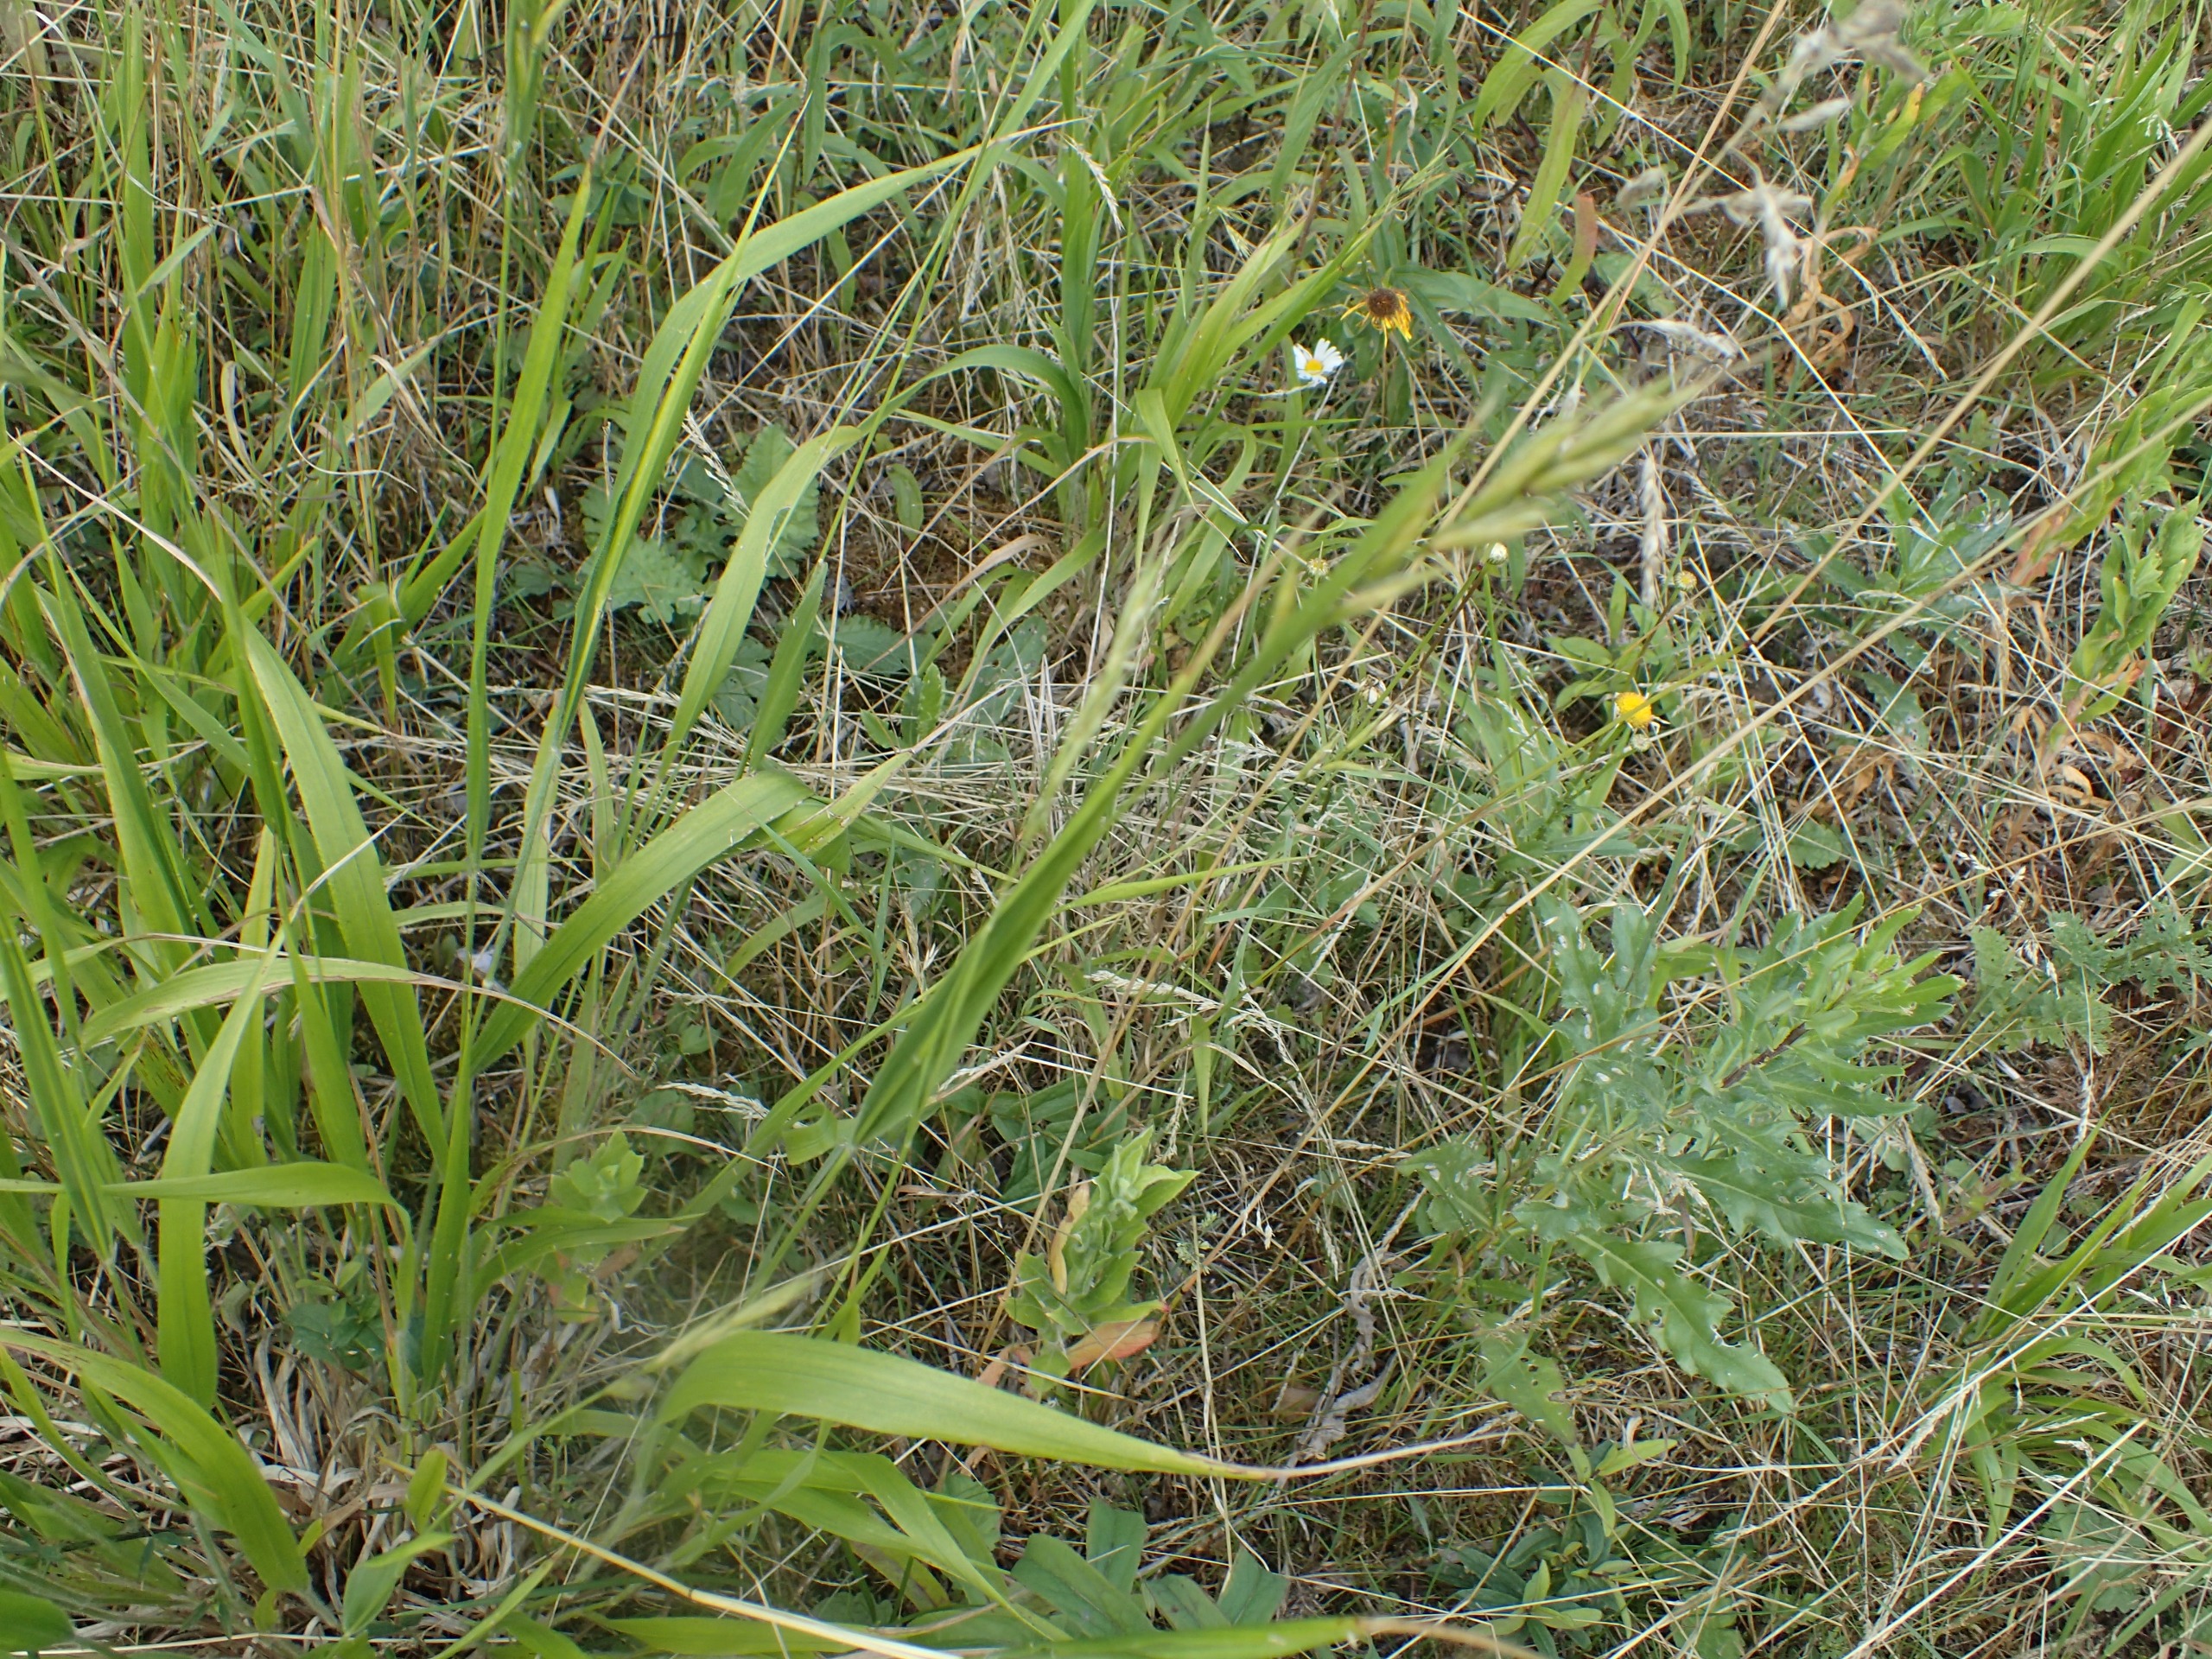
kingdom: Plantae
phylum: Tracheophyta
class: Liliopsida
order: Poales
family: Poaceae
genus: Brachypodium
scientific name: Brachypodium sylvaticum
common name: Skov-stilkaks
